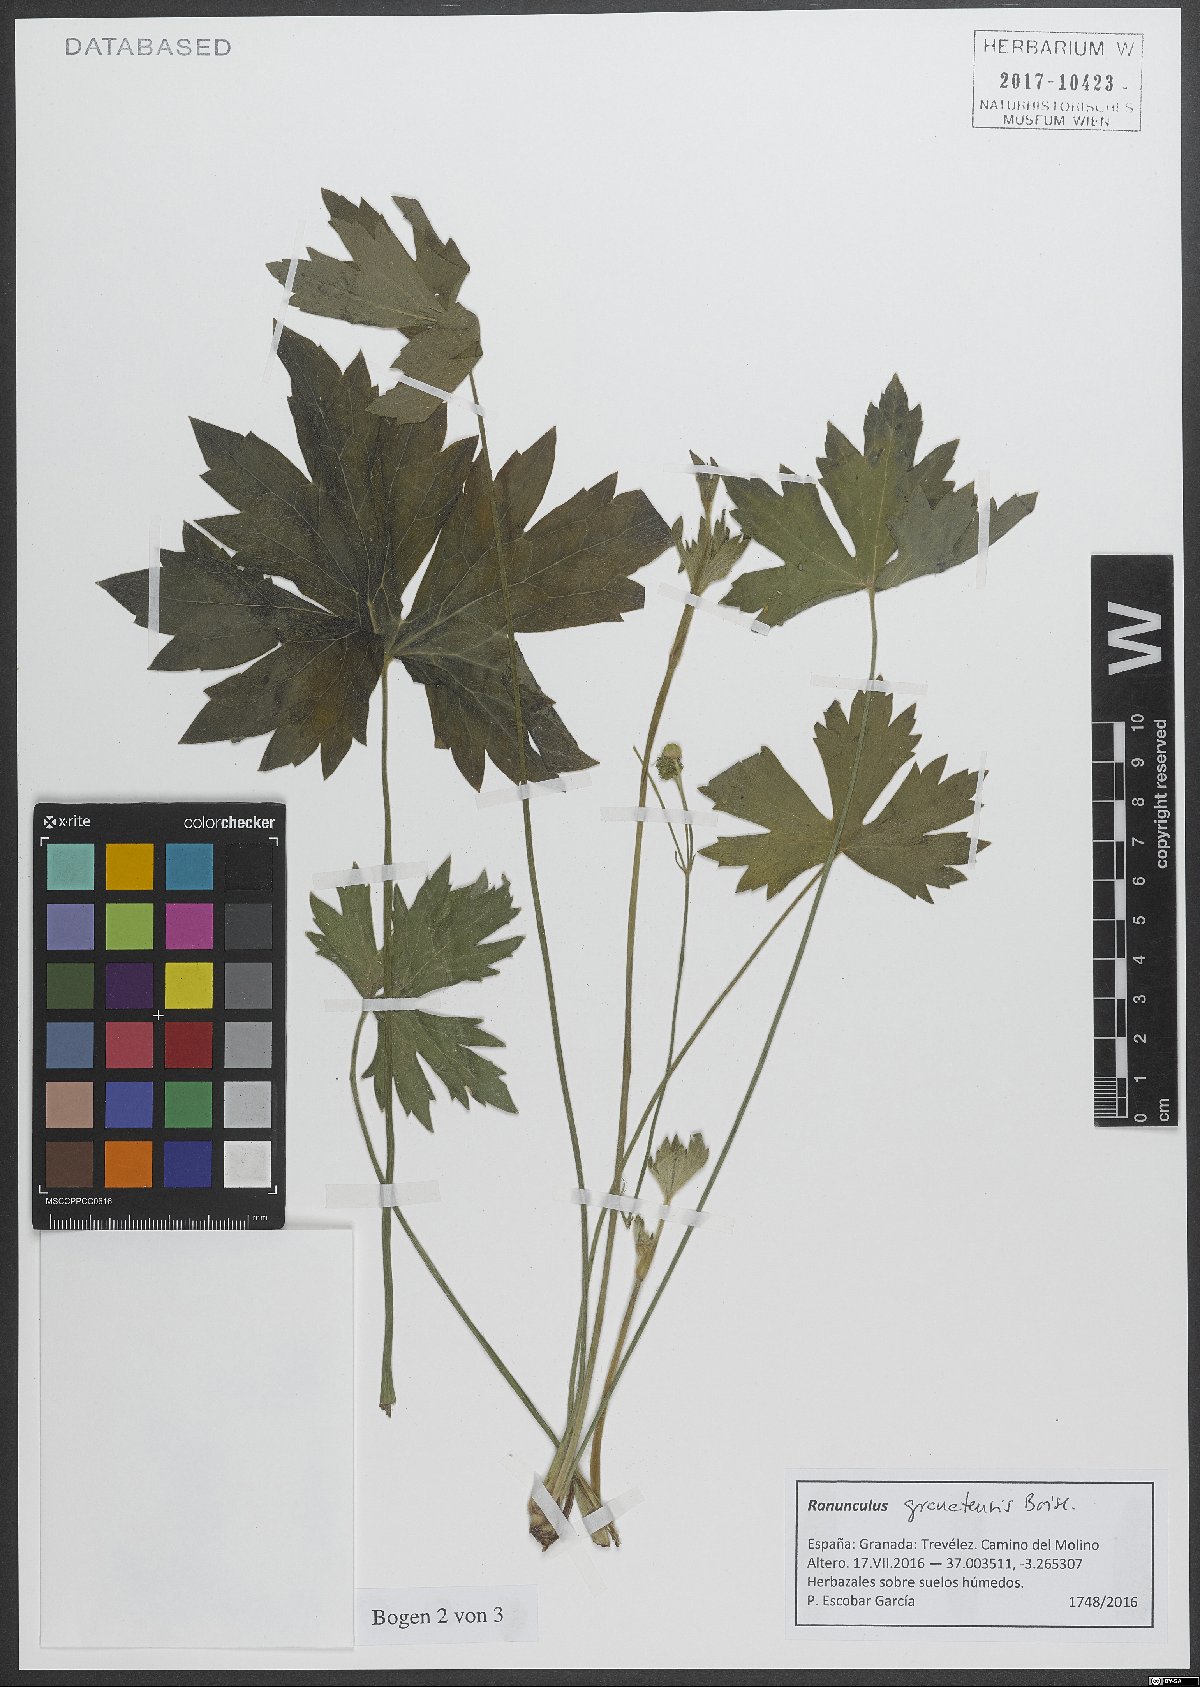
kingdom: Plantae
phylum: Tracheophyta
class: Magnoliopsida
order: Ranunculales
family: Ranunculaceae
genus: Ranunculus
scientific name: Ranunculus granatensis
